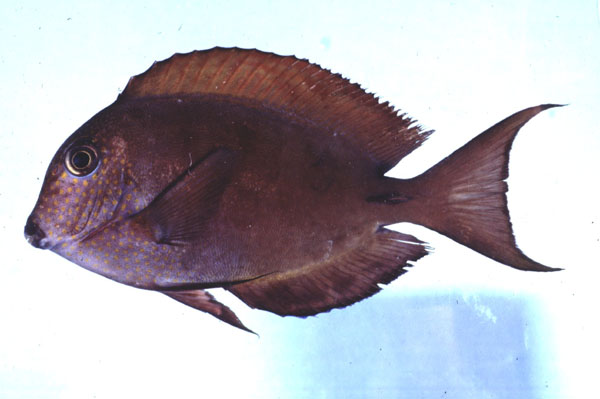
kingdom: Animalia
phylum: Chordata
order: Perciformes
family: Acanthuridae
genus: Acanthurus
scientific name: Acanthurus nigrofuscus
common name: Blackspot surgeonfish
